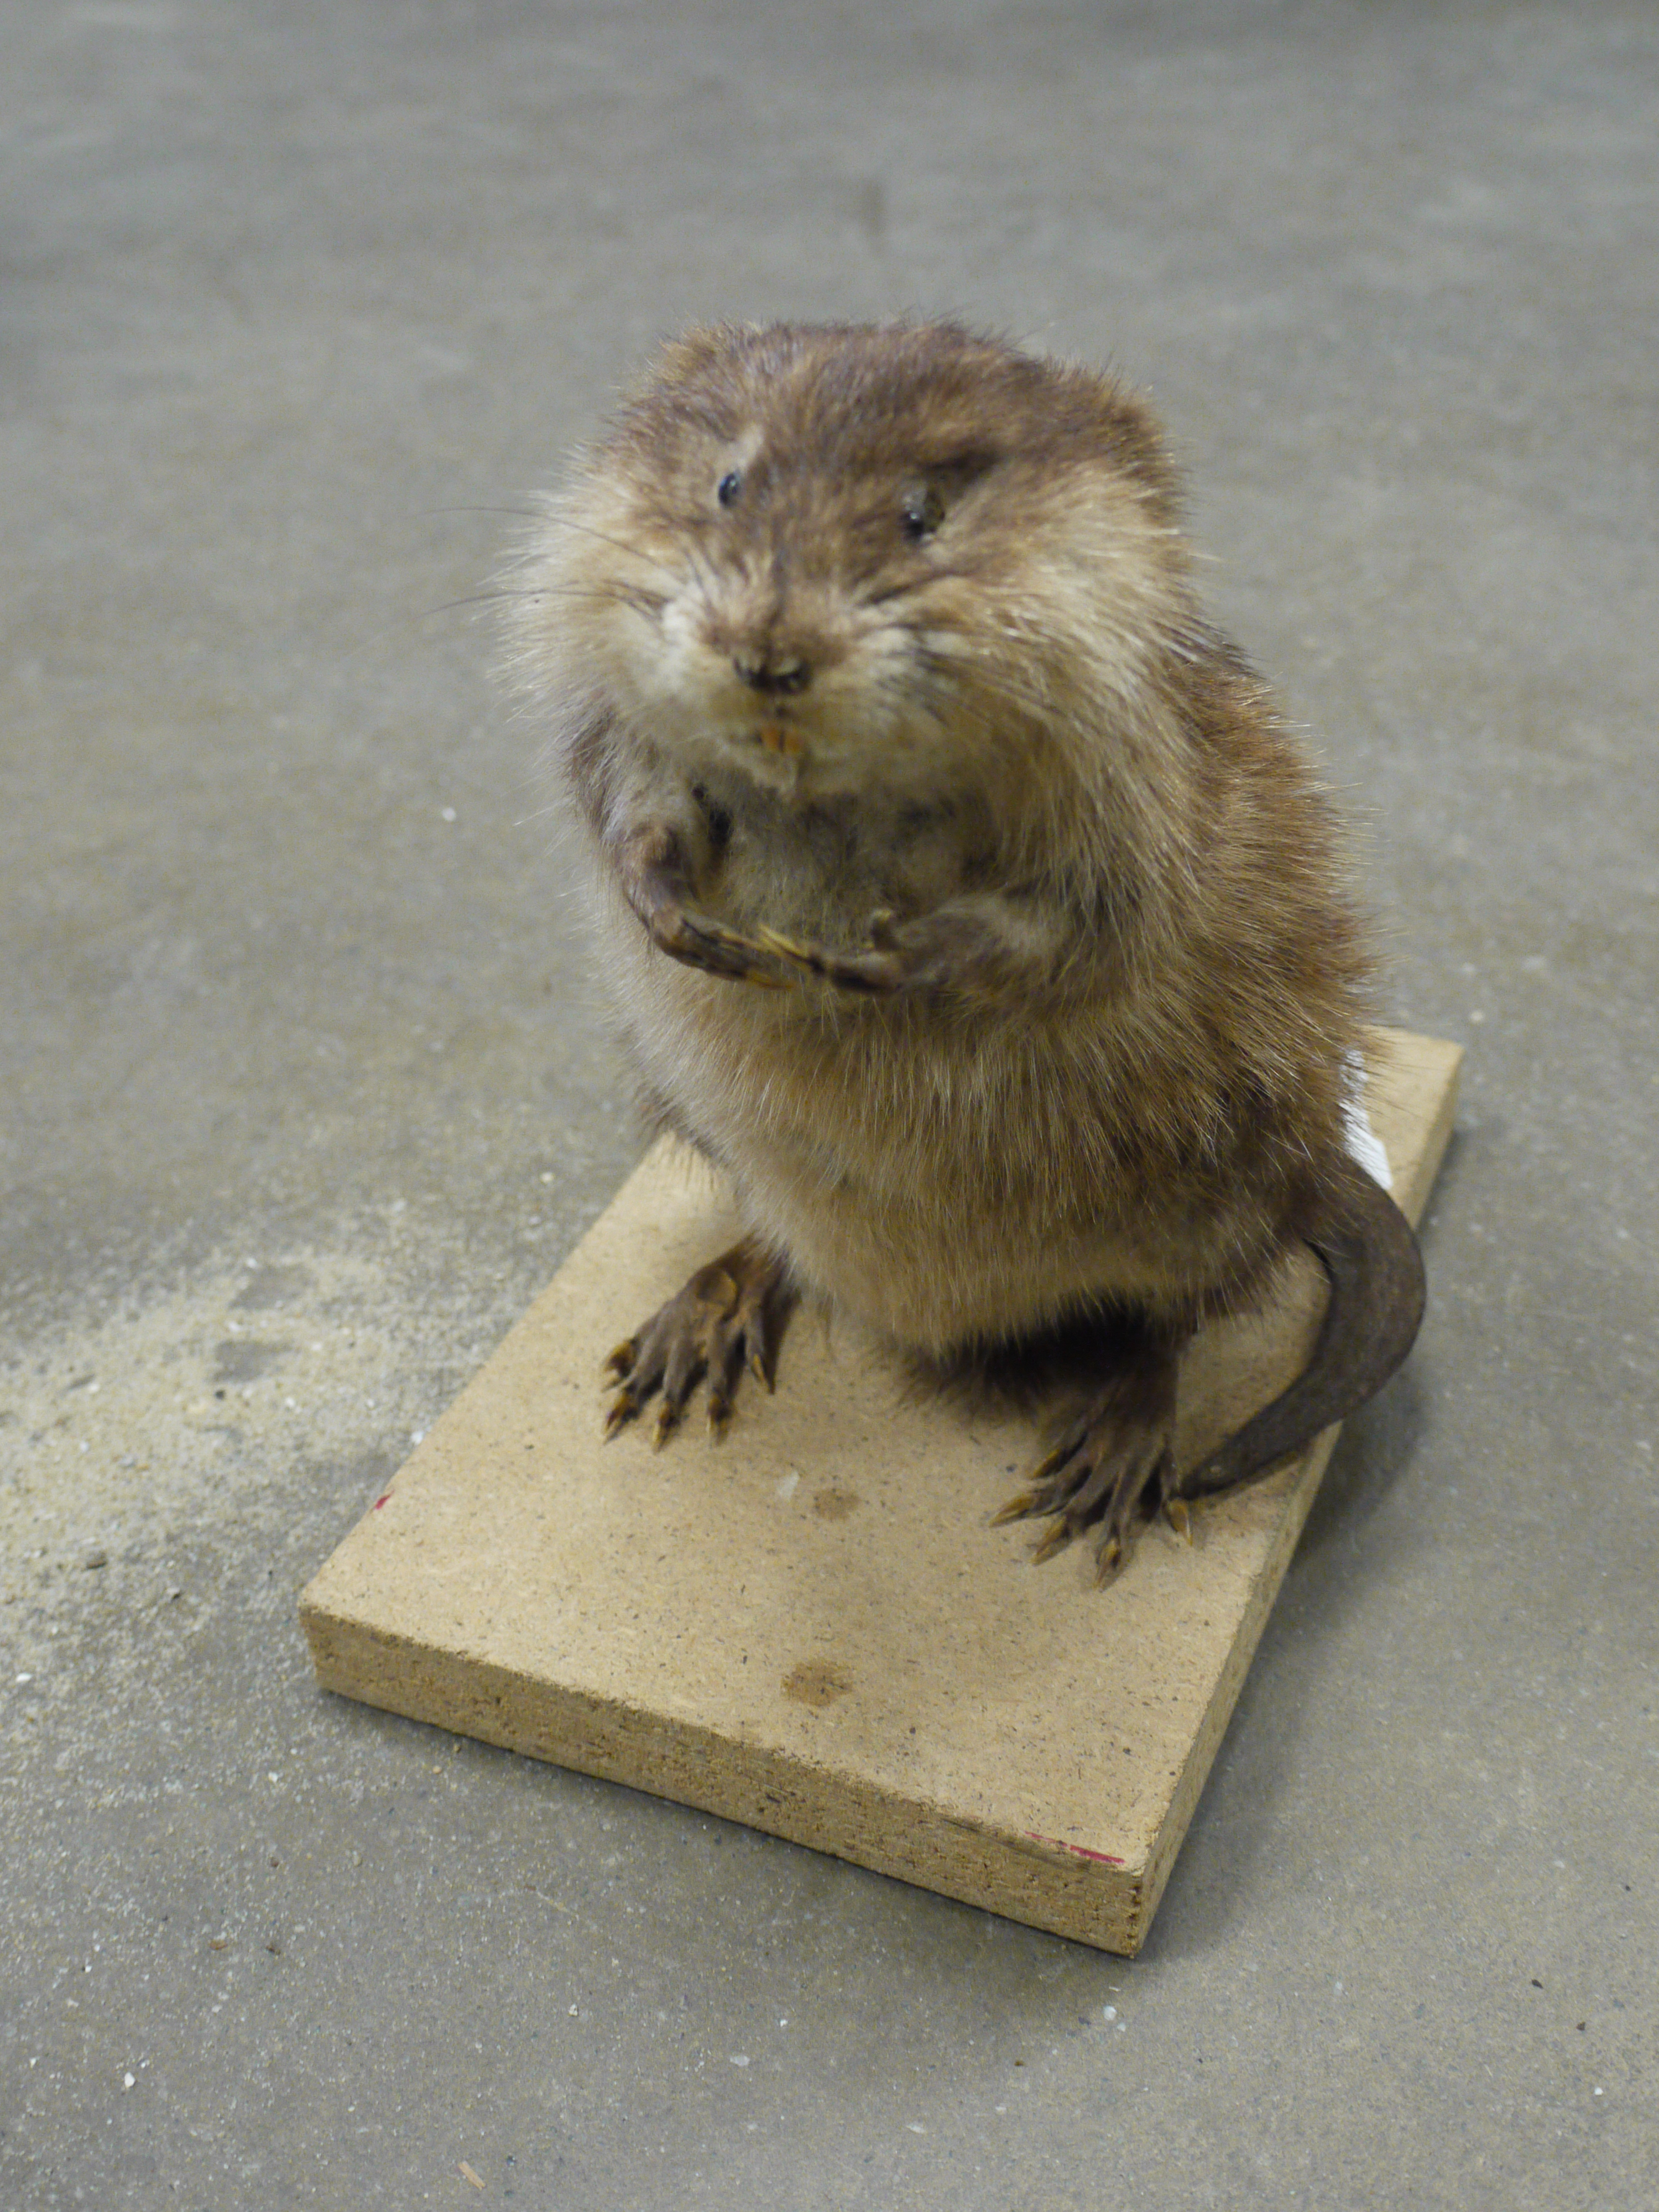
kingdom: Animalia
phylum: Chordata
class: Mammalia
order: Rodentia
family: Cricetidae
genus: Ondatra
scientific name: Ondatra zibethicus
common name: Muskrat
